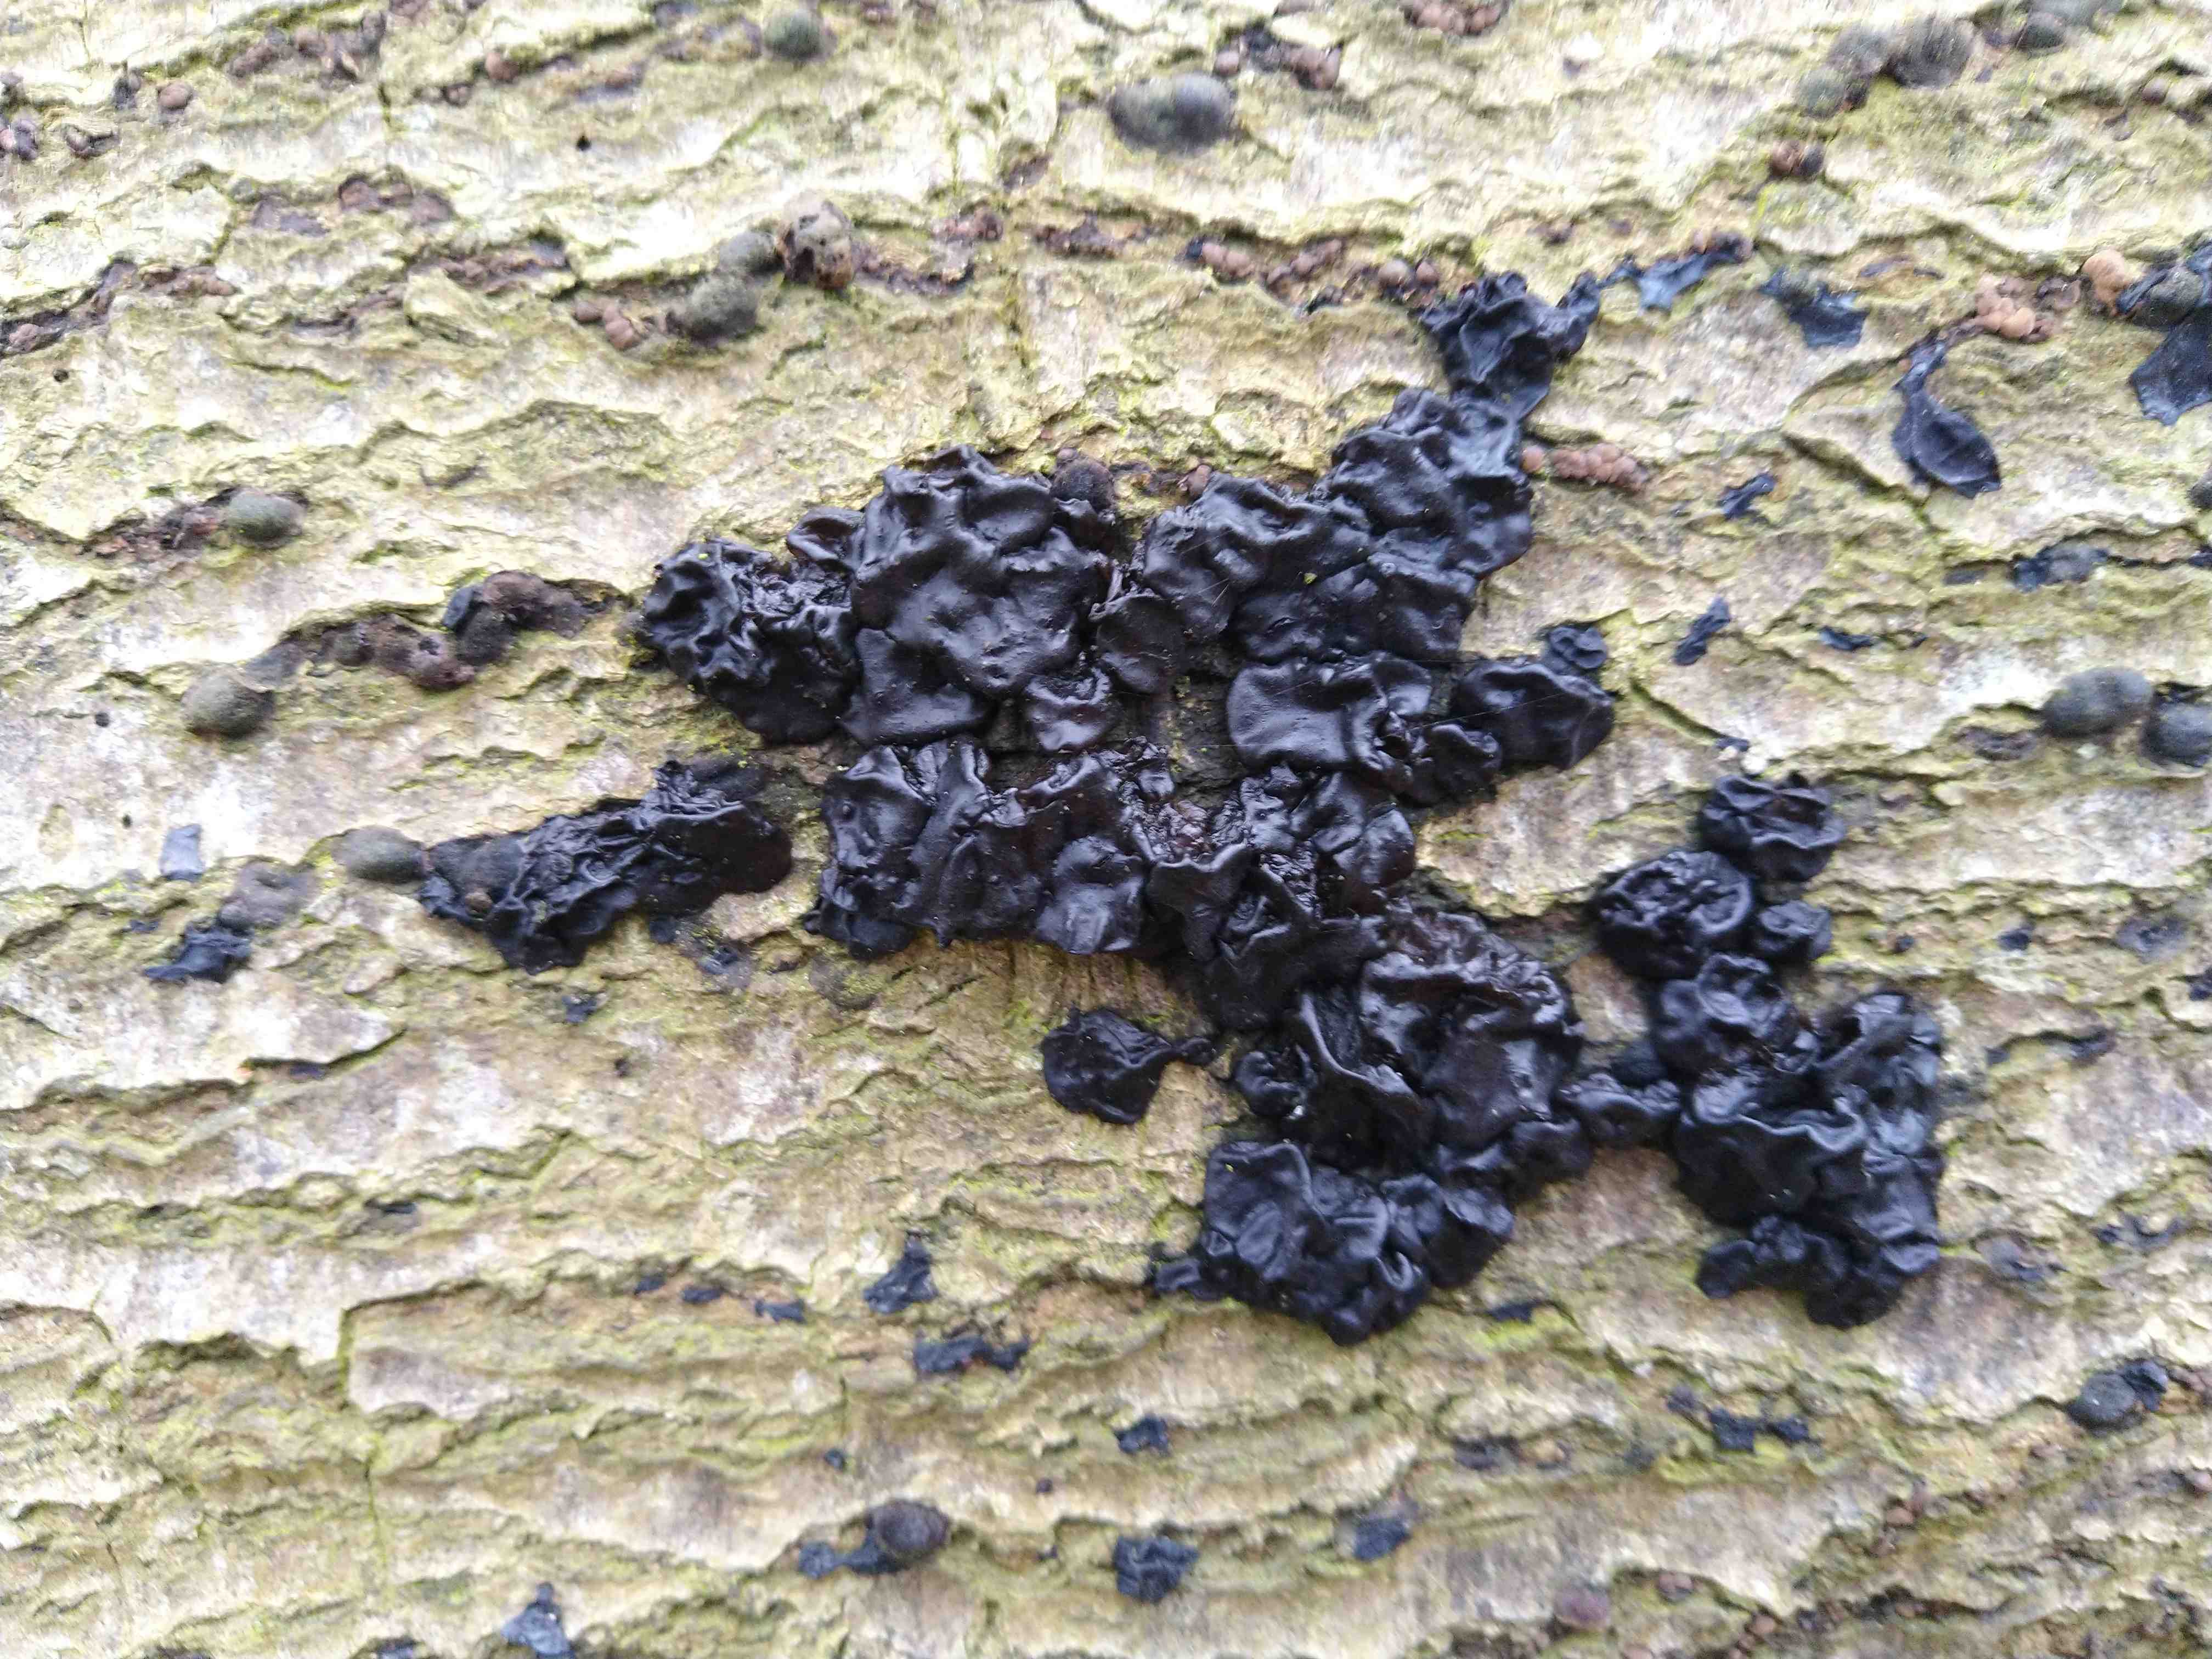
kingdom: Fungi
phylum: Basidiomycota
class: Agaricomycetes
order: Auriculariales
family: Auriculariaceae
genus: Exidia
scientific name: Exidia nigricans
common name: almindelig bævretop
